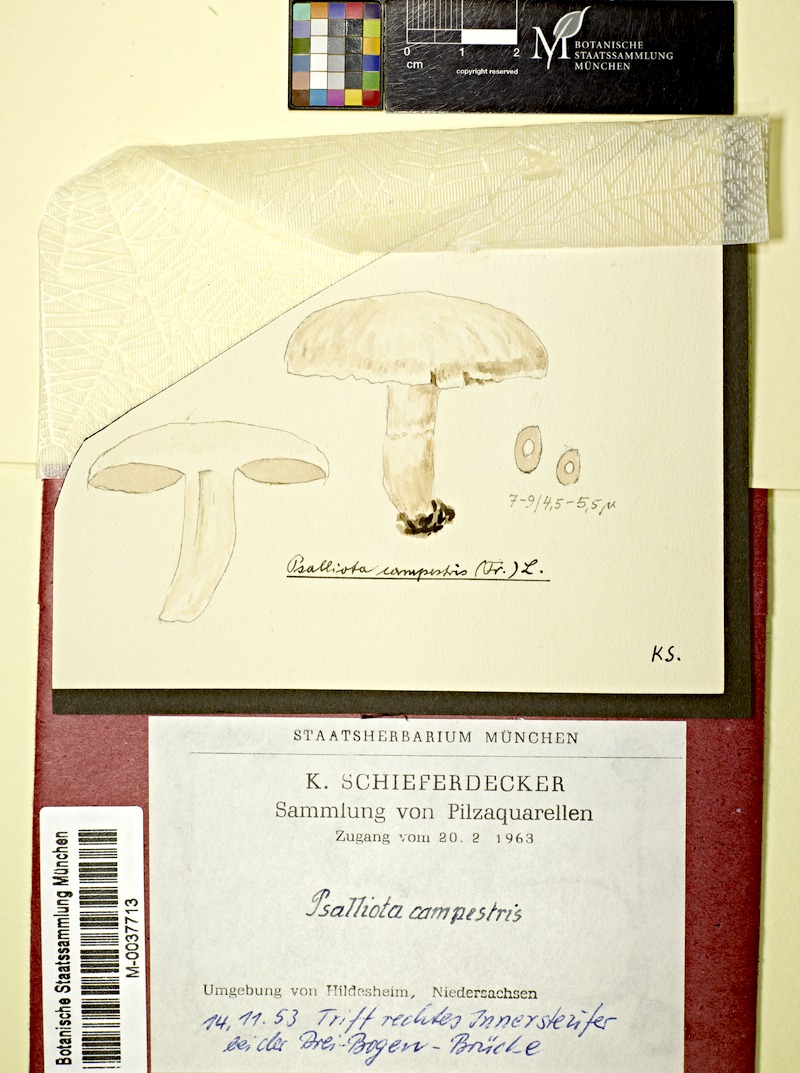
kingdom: Fungi
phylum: Basidiomycota
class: Agaricomycetes
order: Agaricales
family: Agaricaceae
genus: Agaricus
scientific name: Agaricus campestris
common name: Field mushroom
